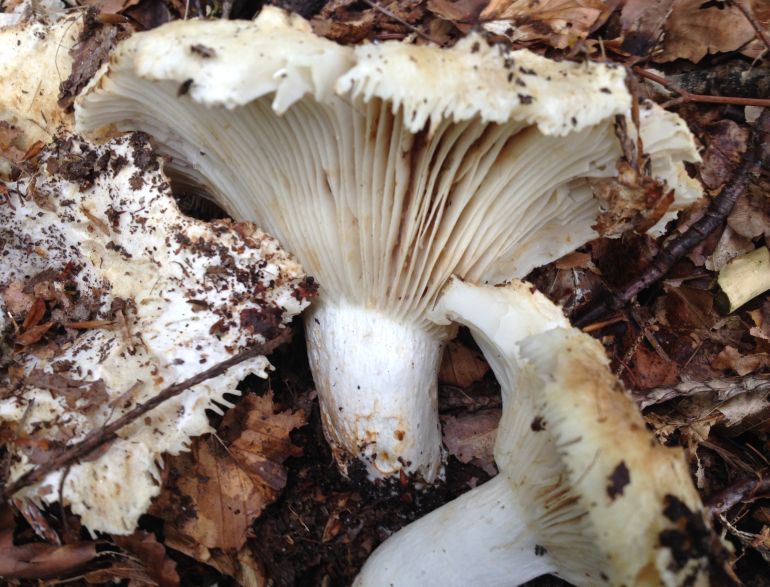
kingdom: Fungi
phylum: Basidiomycota
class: Agaricomycetes
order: Russulales
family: Russulaceae
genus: Russula
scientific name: Russula delica
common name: almindelig tragt-skørhat
